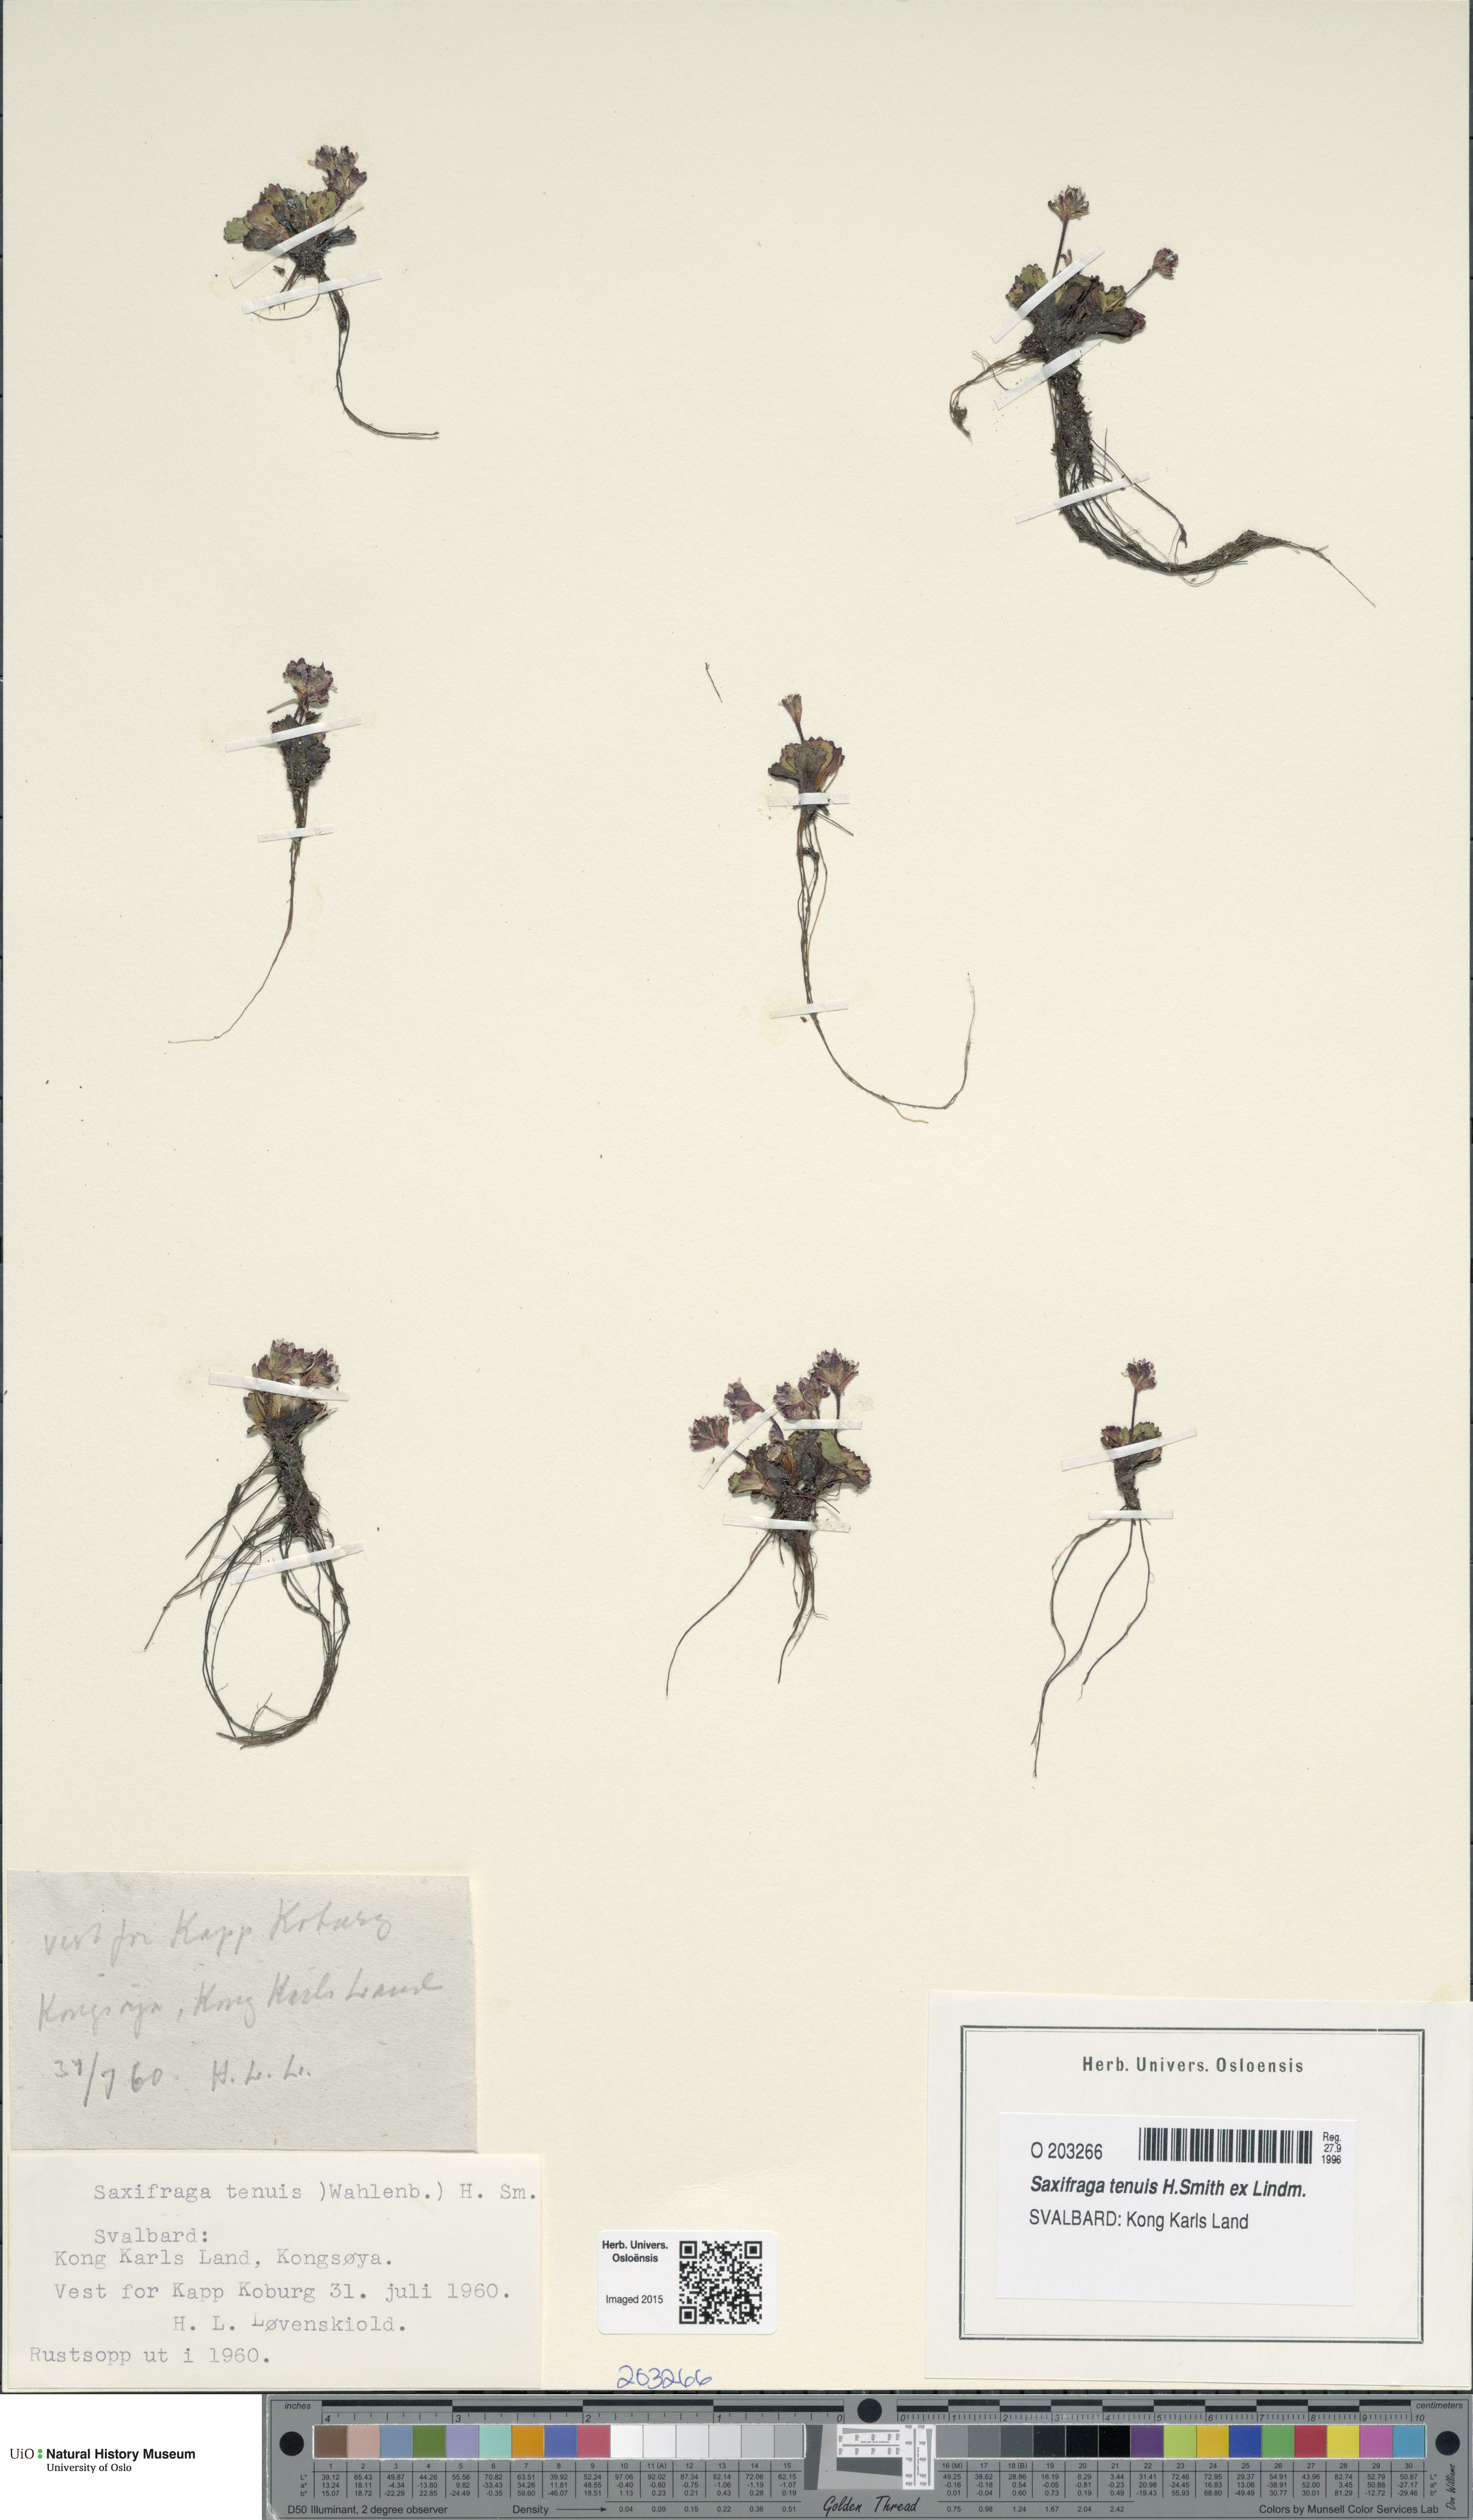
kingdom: Plantae
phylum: Tracheophyta
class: Magnoliopsida
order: Saxifragales
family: Saxifragaceae
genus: Micranthes
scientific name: Micranthes tenuis
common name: Ottertail pass saxifrage
